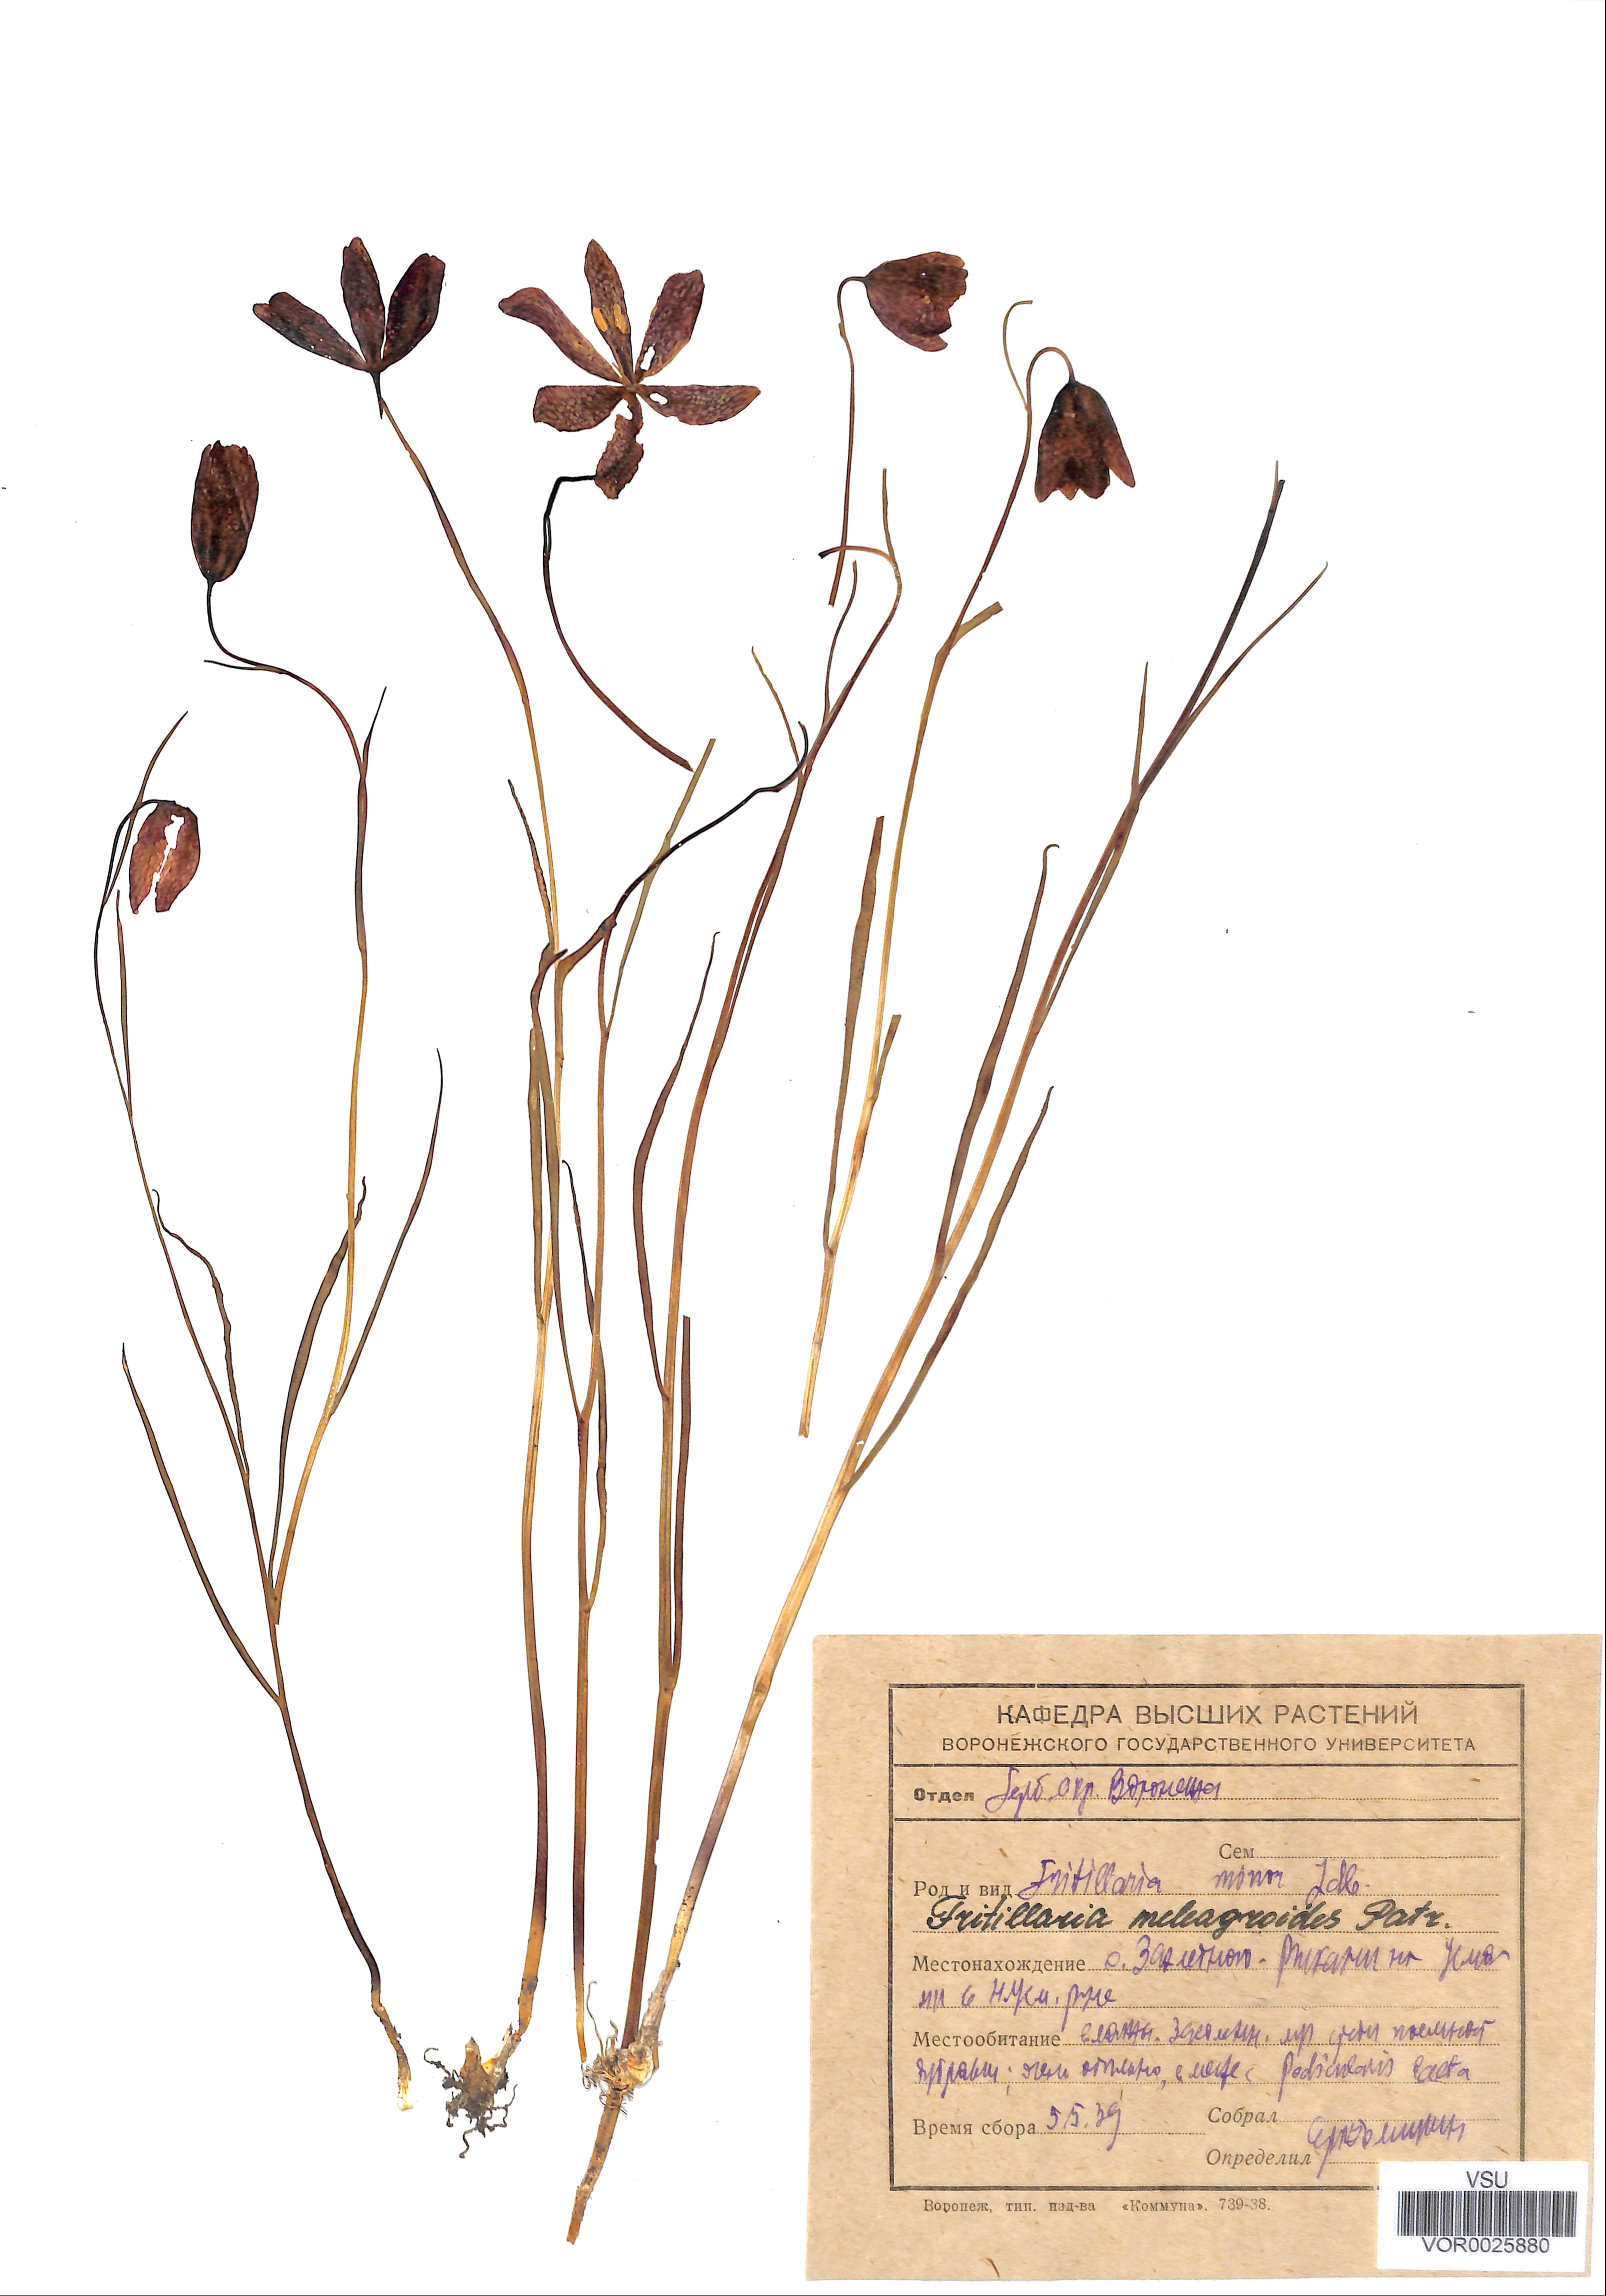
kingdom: Plantae
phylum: Tracheophyta
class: Liliopsida
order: Liliales
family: Liliaceae
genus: Fritillaria
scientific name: Fritillaria meleagroides
